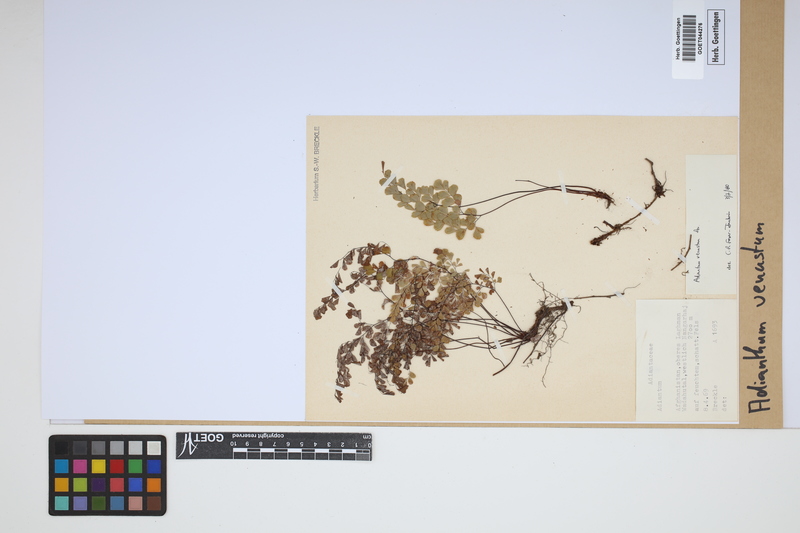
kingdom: Plantae
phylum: Tracheophyta
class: Polypodiopsida
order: Polypodiales
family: Pteridaceae
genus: Adiantum
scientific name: Adiantum venustum
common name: Evergreen maidenhair
